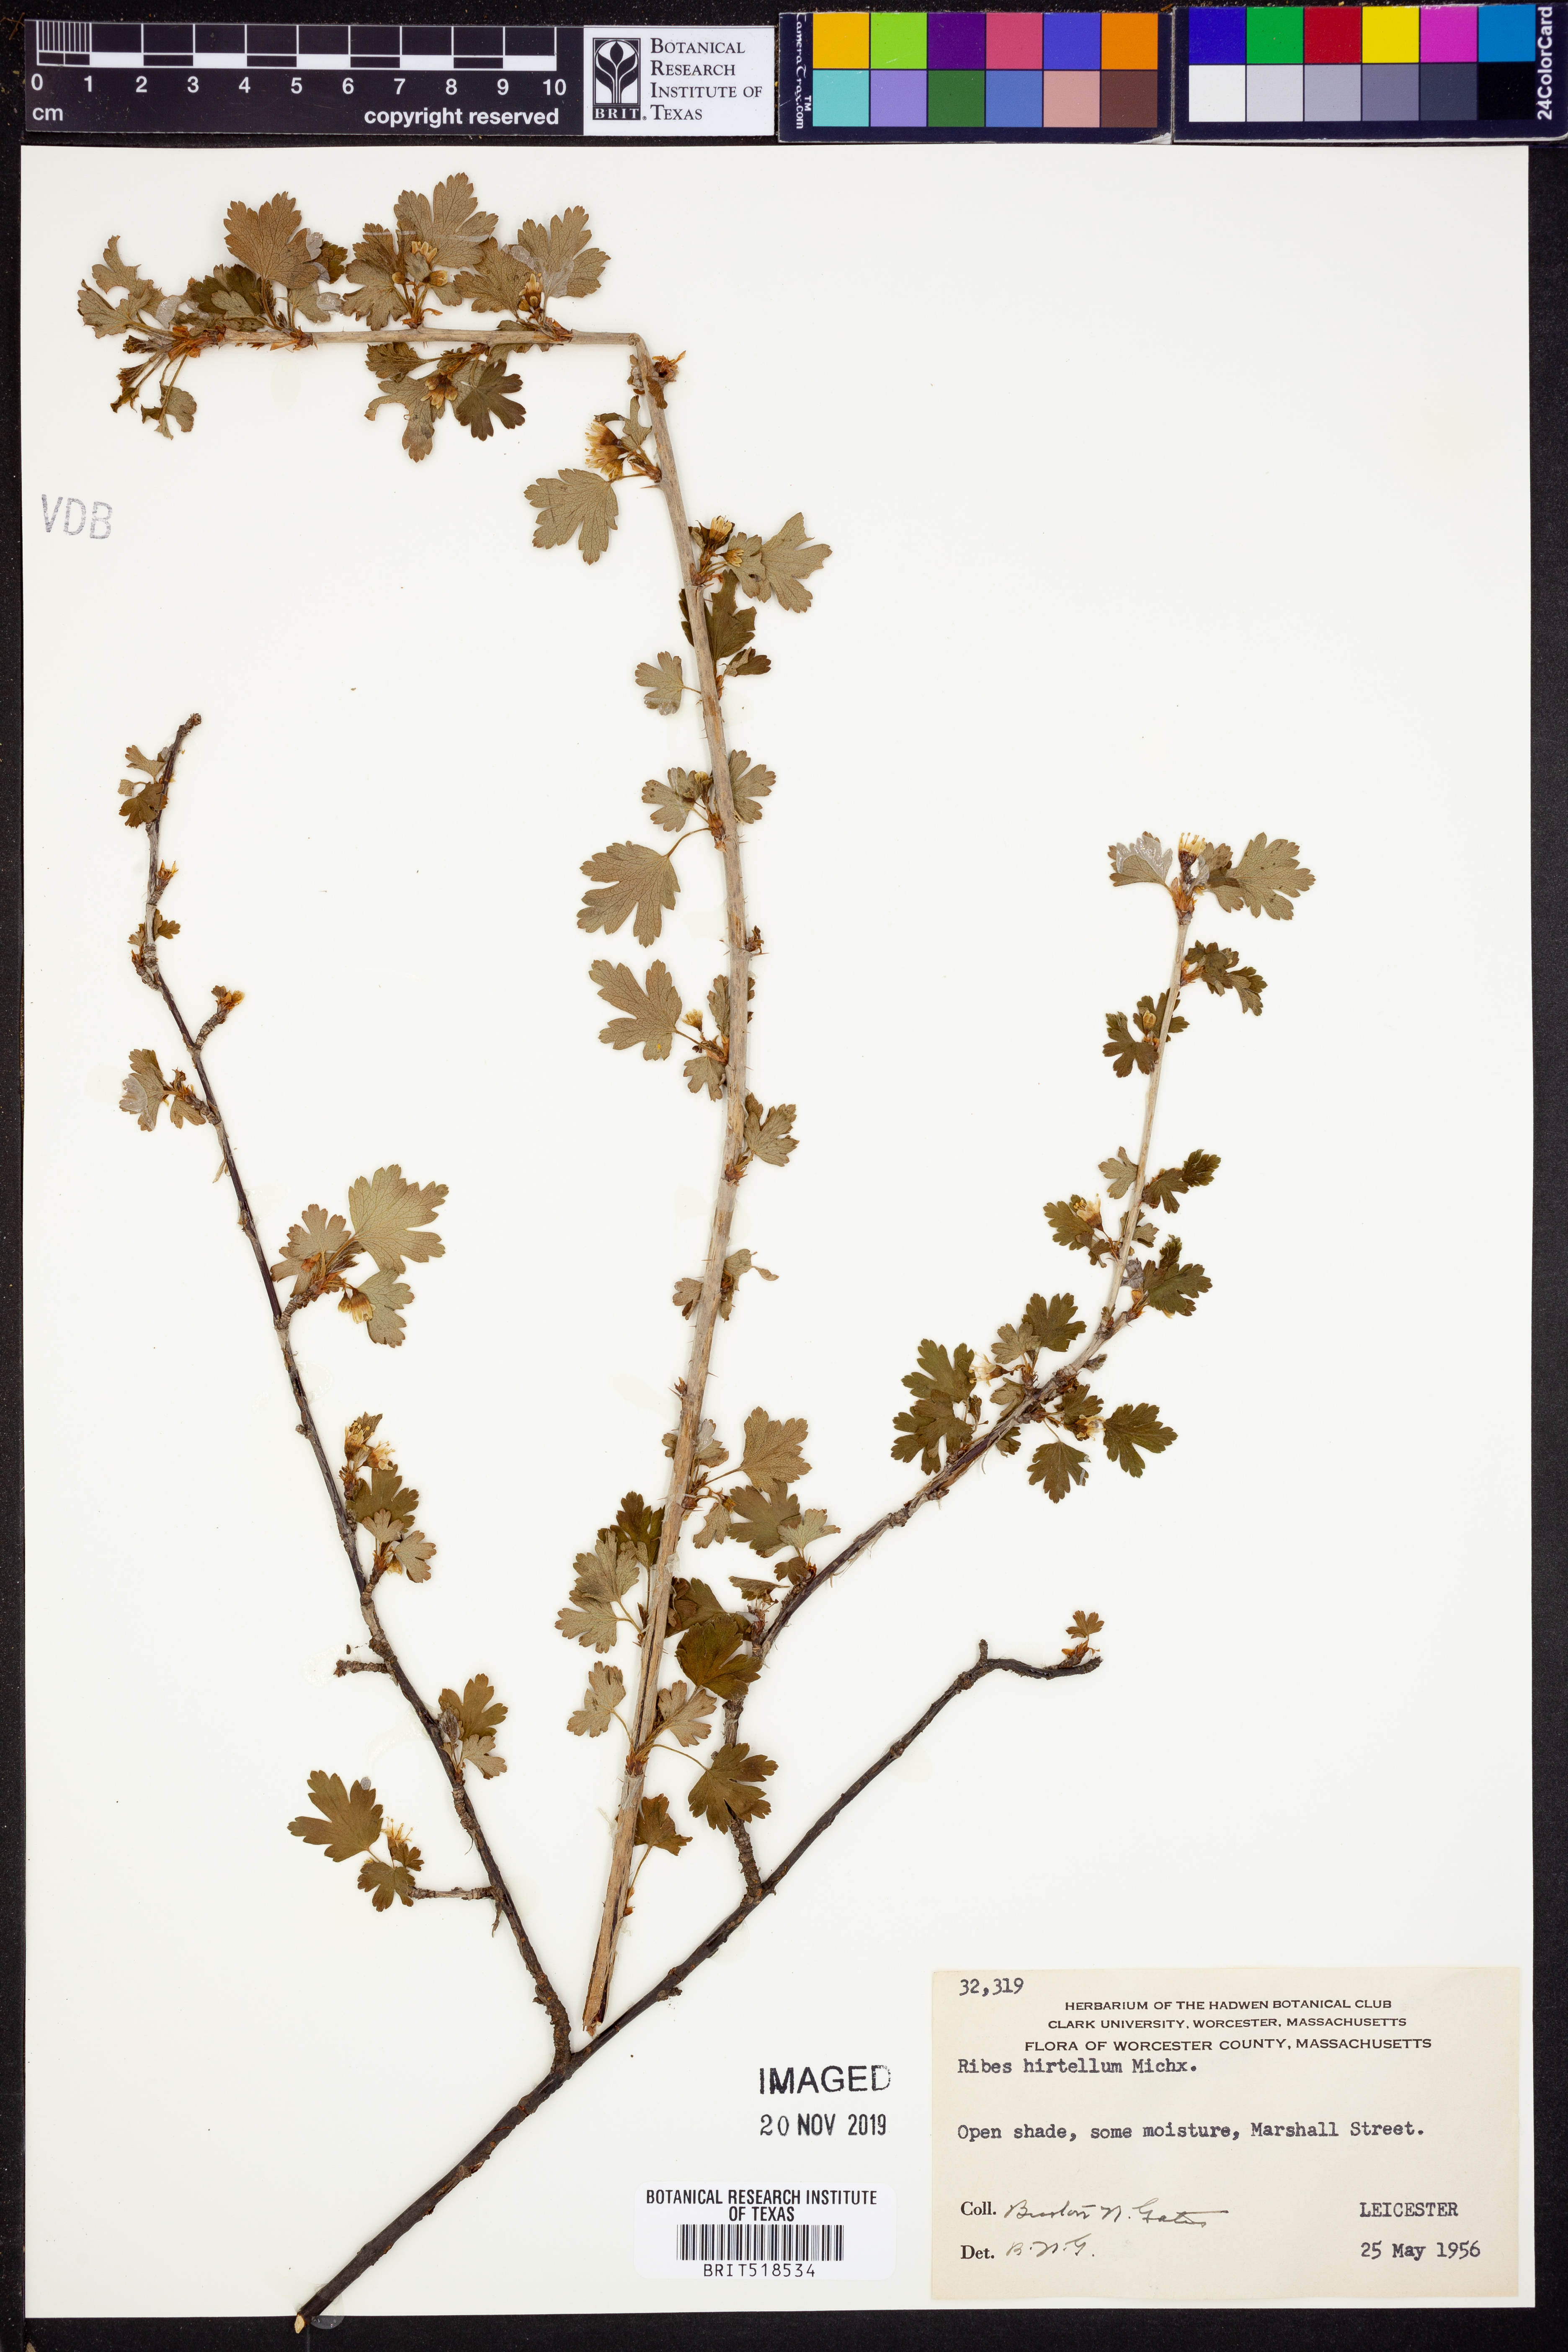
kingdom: Plantae
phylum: Tracheophyta
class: Magnoliopsida
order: Saxifragales
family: Grossulariaceae
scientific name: Grossulariaceae
